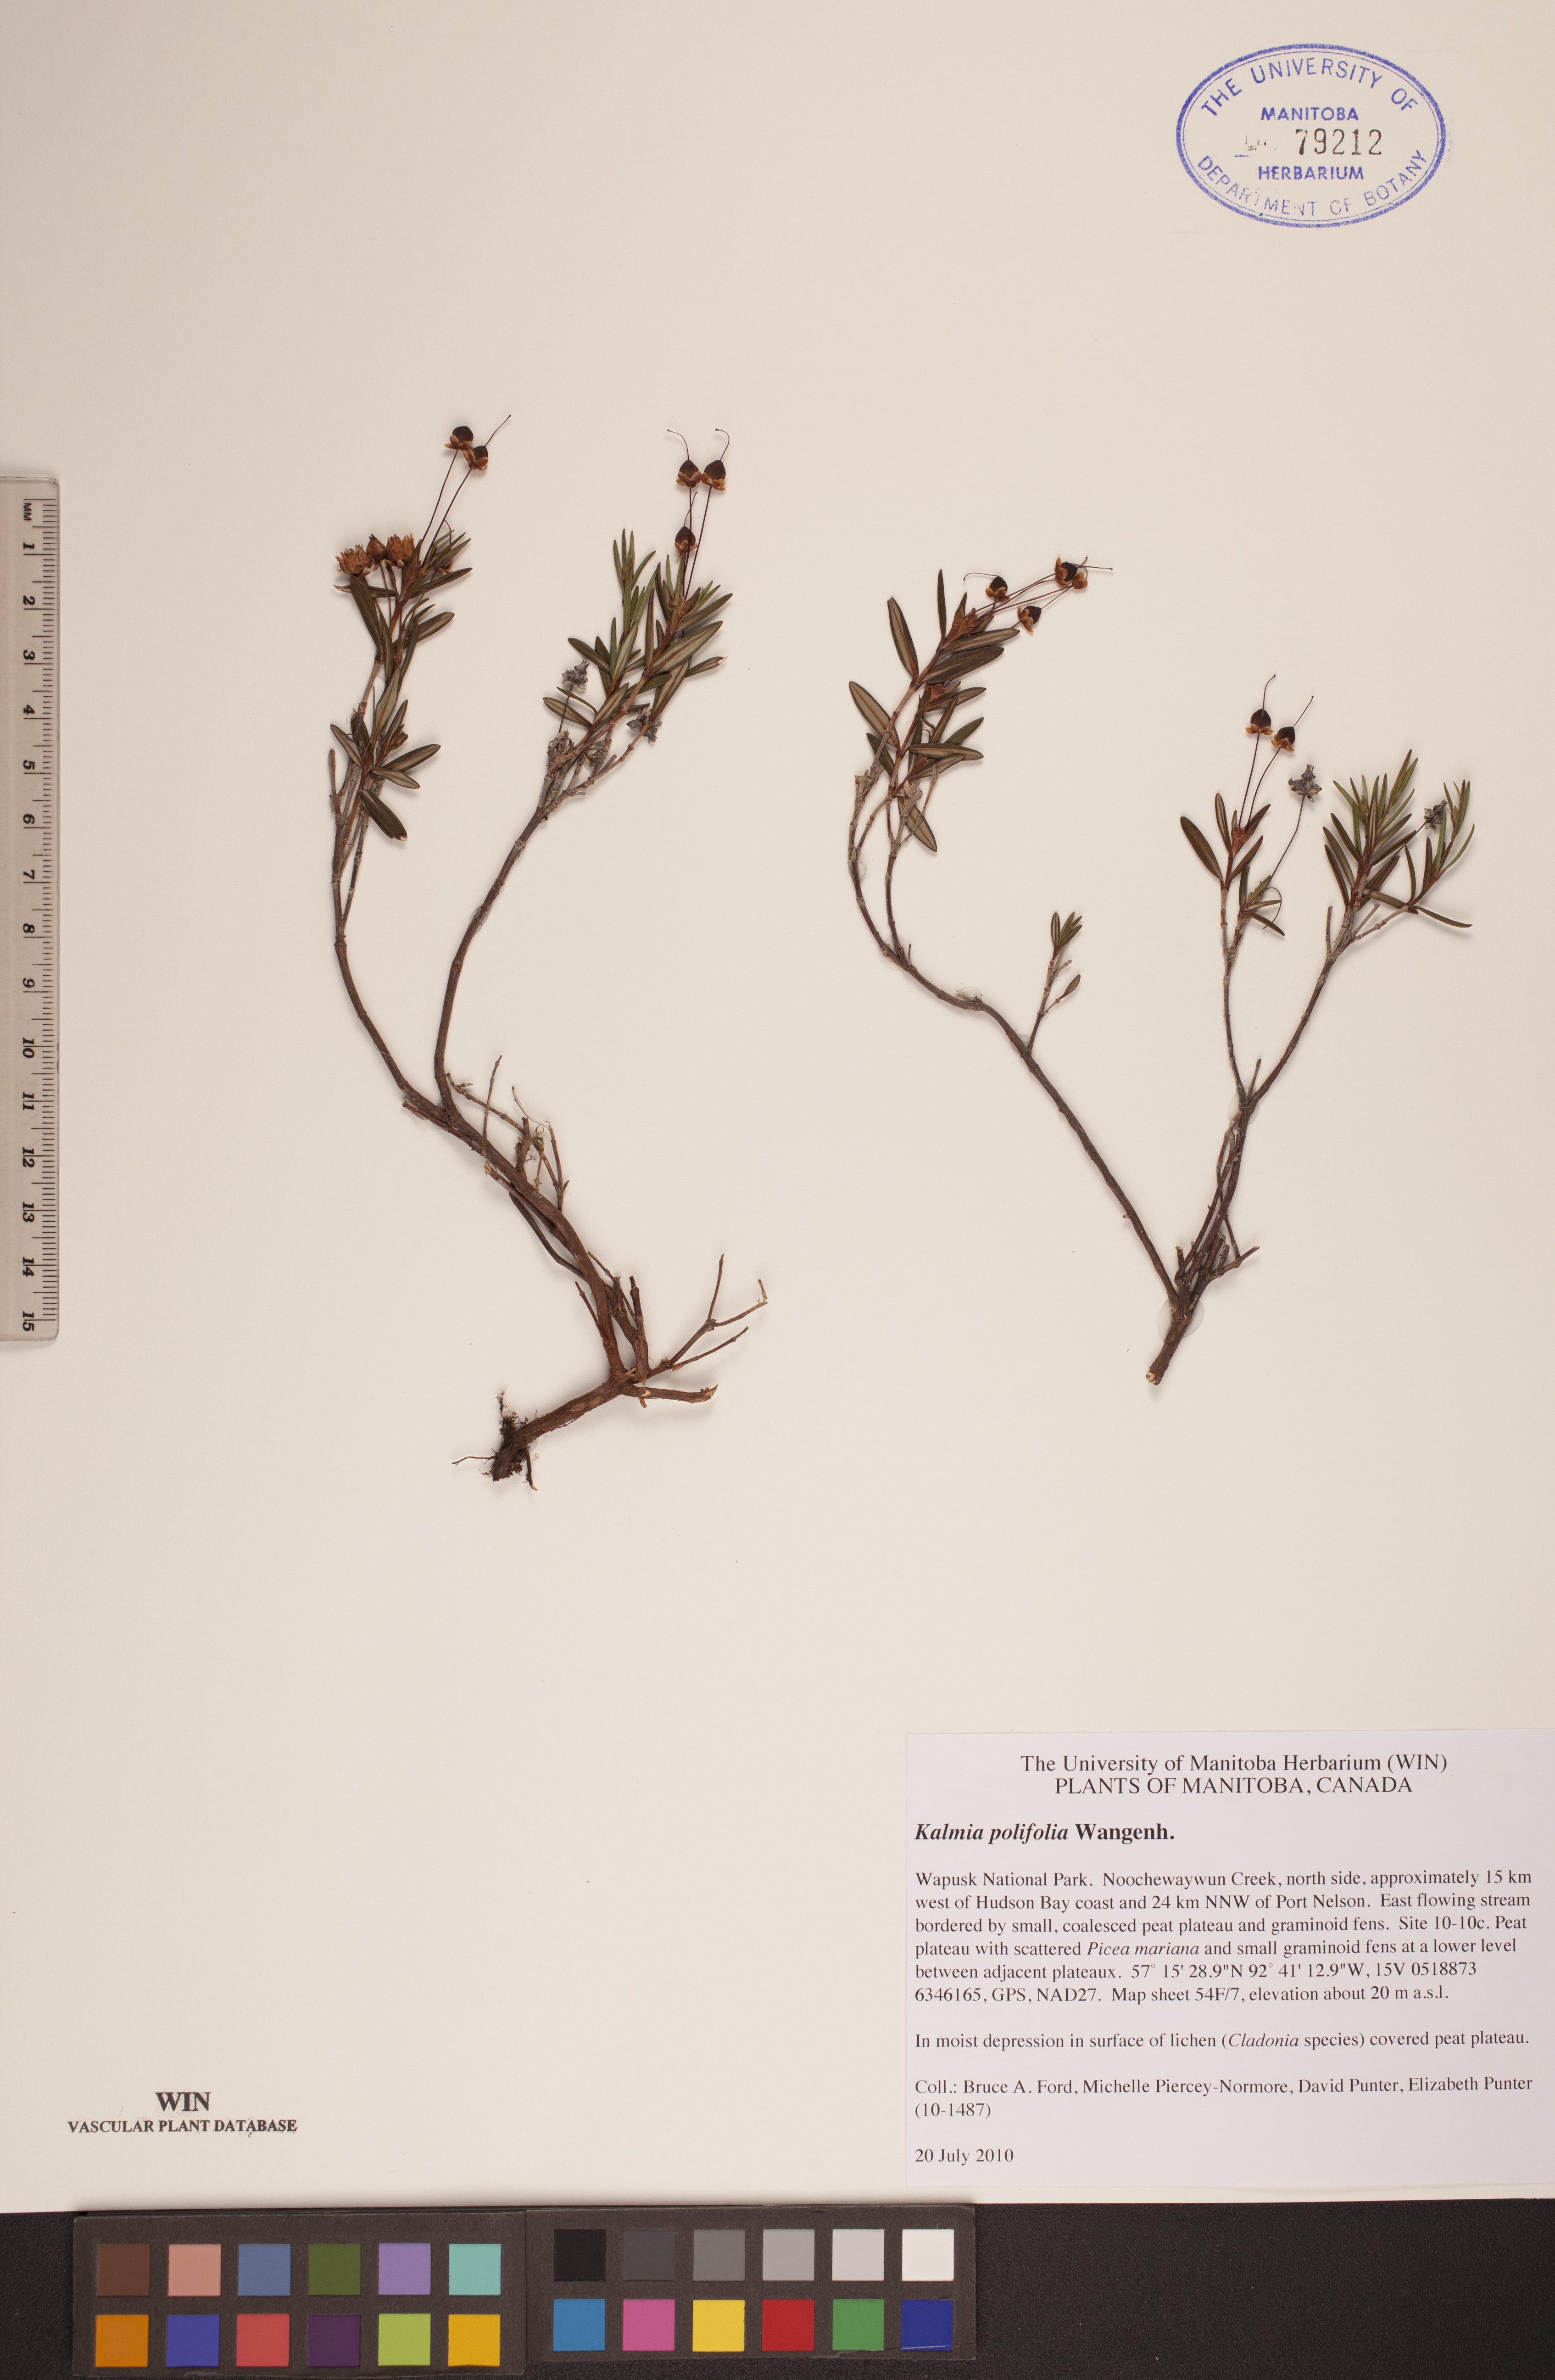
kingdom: Plantae
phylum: Tracheophyta
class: Magnoliopsida
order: Ericales
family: Ericaceae
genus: Kalmia
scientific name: Kalmia polifolia
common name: Bog-laurel
